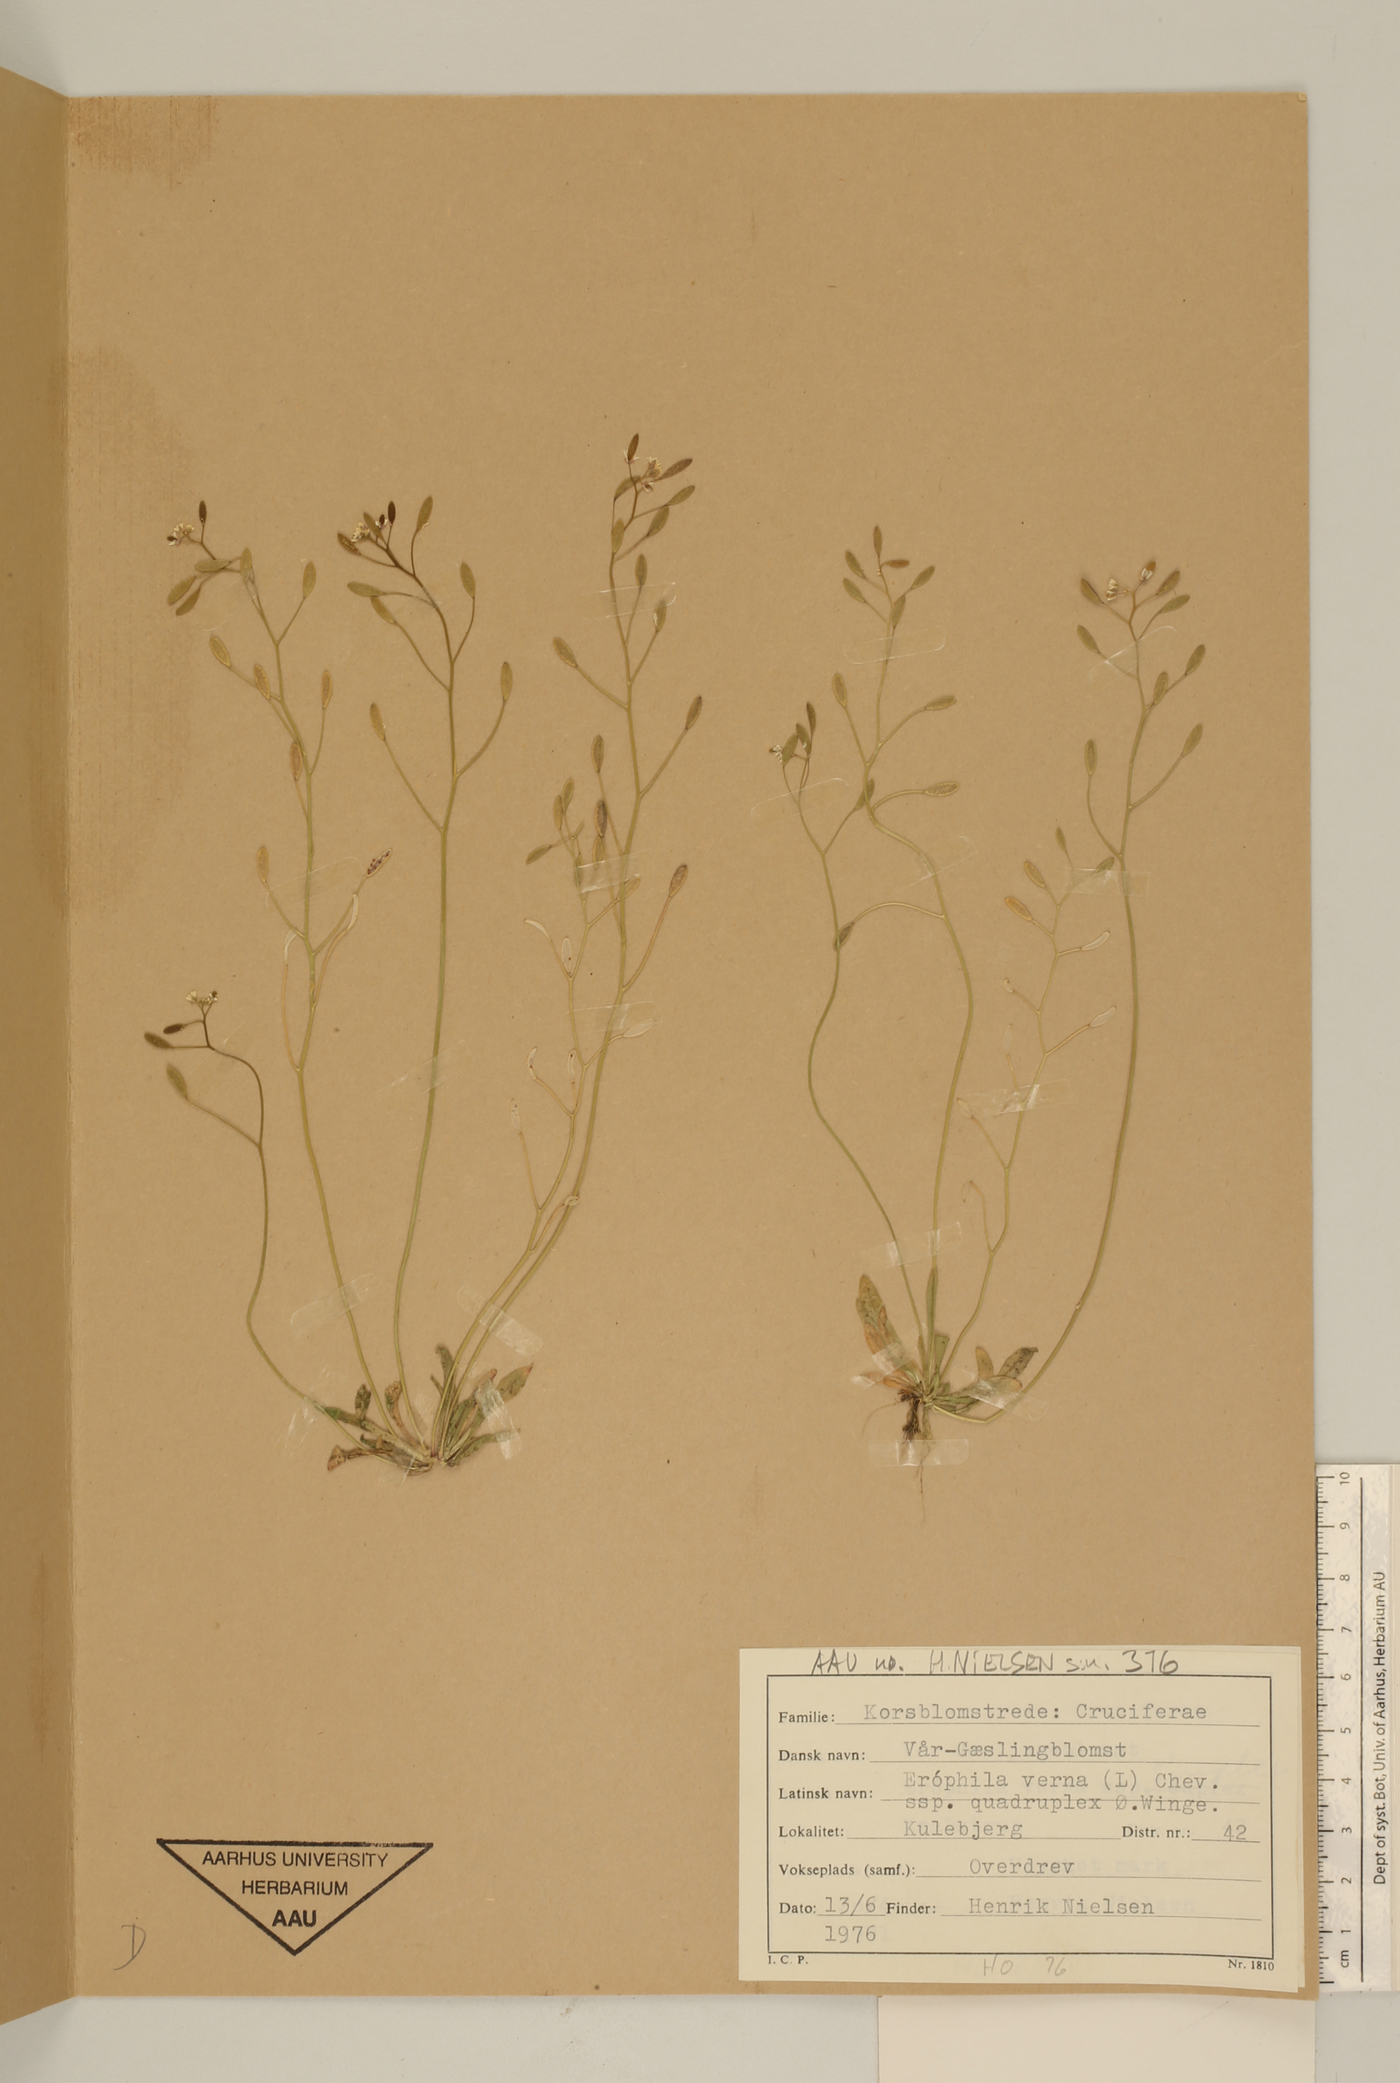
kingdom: Plantae
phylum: Tracheophyta
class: Magnoliopsida
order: Brassicales
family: Brassicaceae
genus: Draba
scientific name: Draba verna
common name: Spring draba
